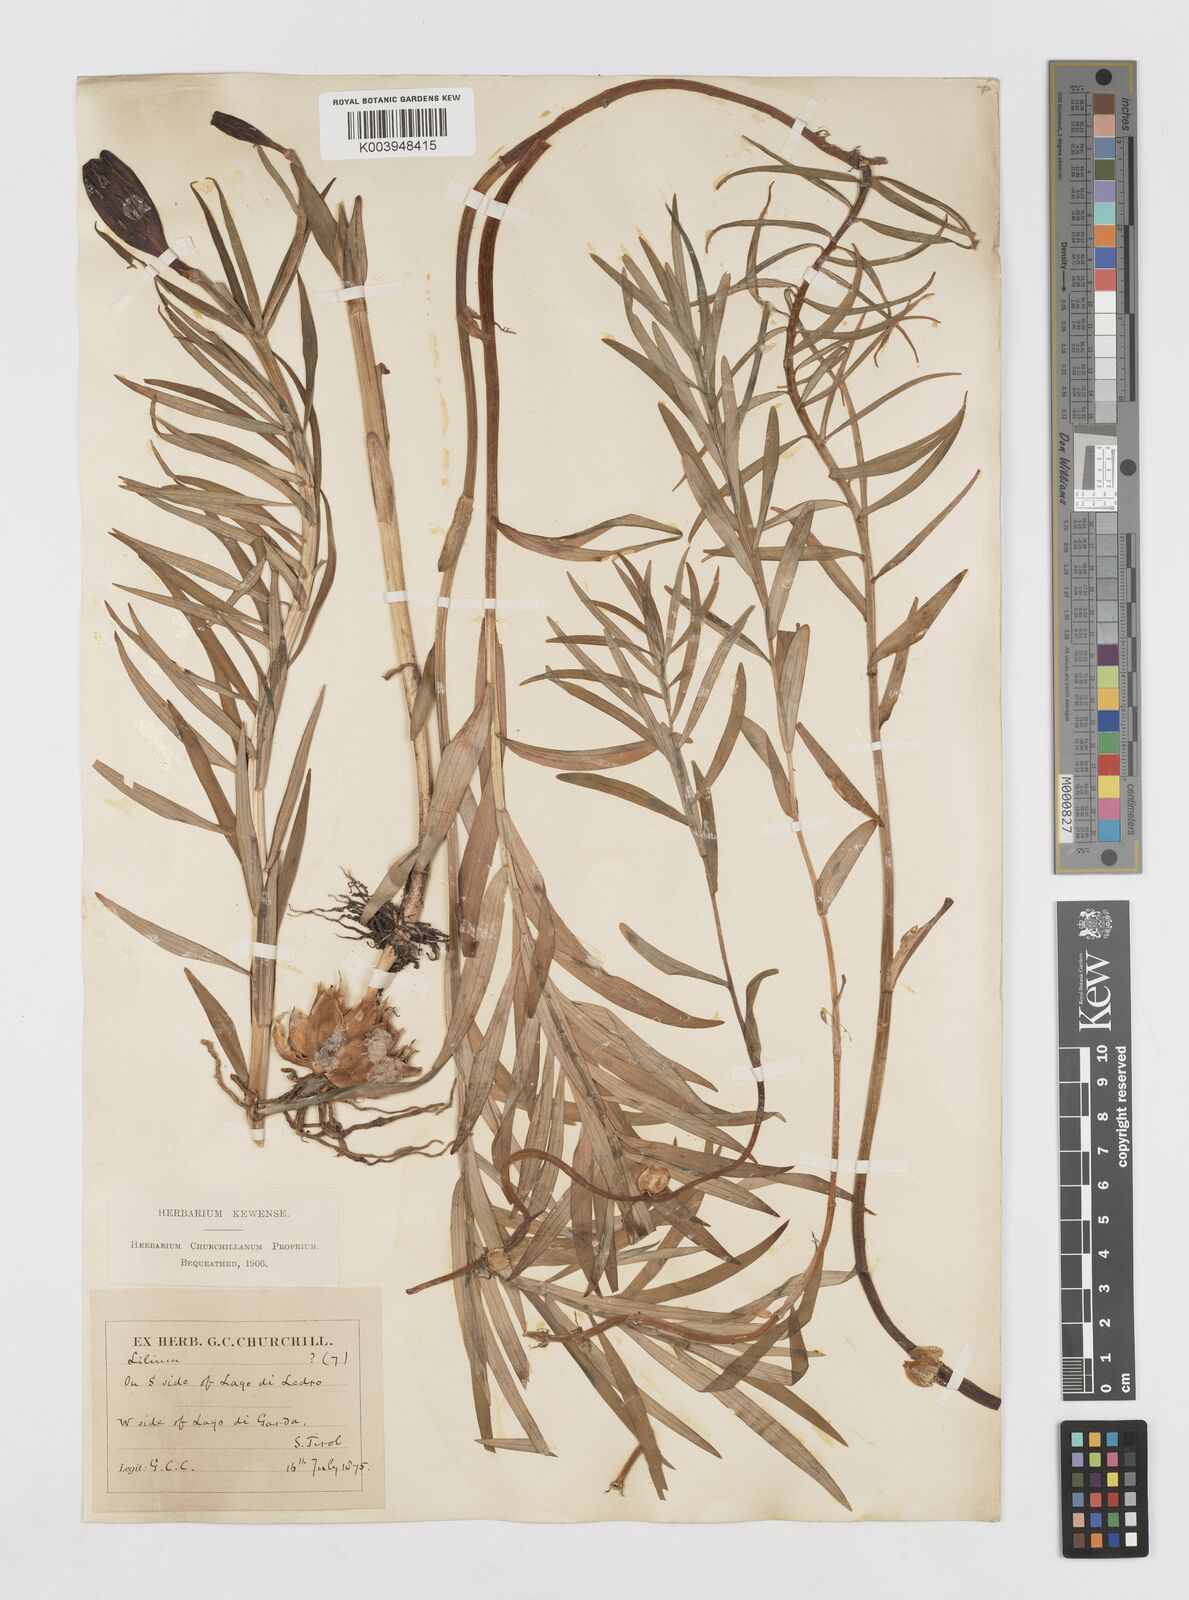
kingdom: Plantae
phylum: Tracheophyta
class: Liliopsida
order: Liliales
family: Liliaceae
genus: Lilium
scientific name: Lilium carniolicum
